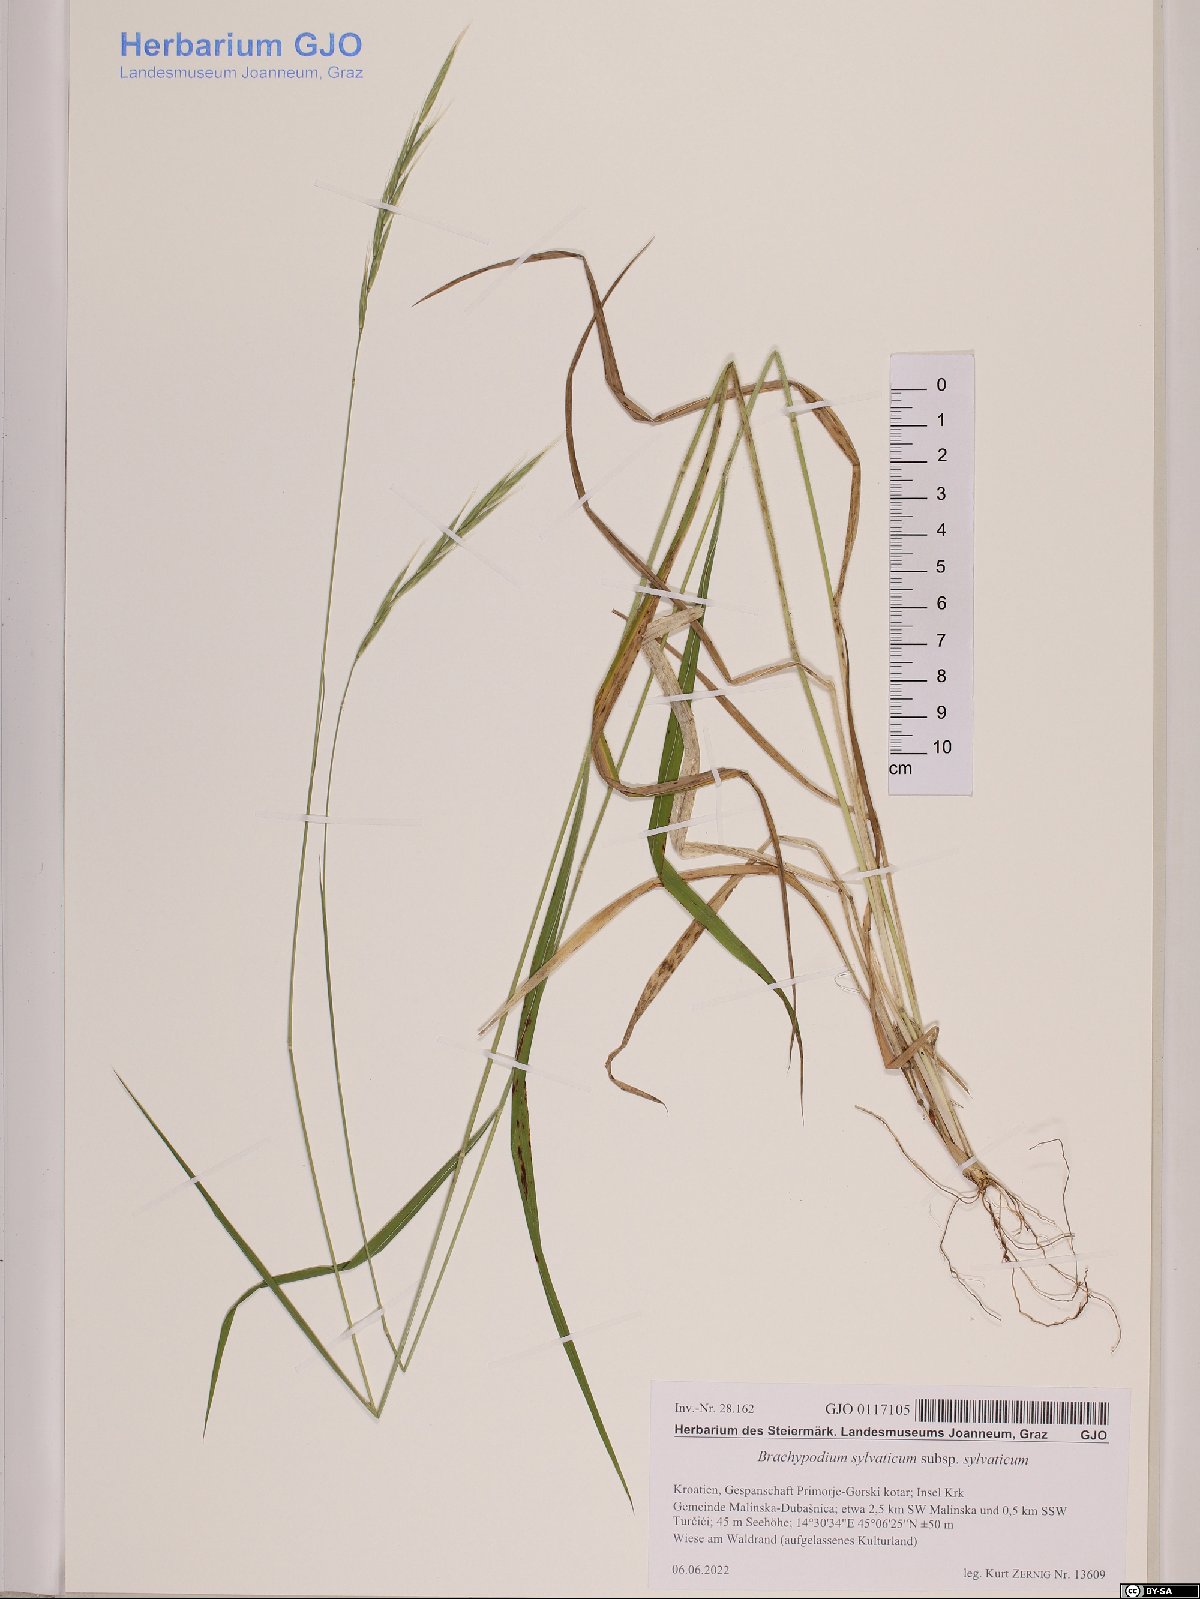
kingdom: Plantae
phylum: Tracheophyta
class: Liliopsida
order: Poales
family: Poaceae
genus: Brachypodium
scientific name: Brachypodium sylvaticum
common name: False-brome
